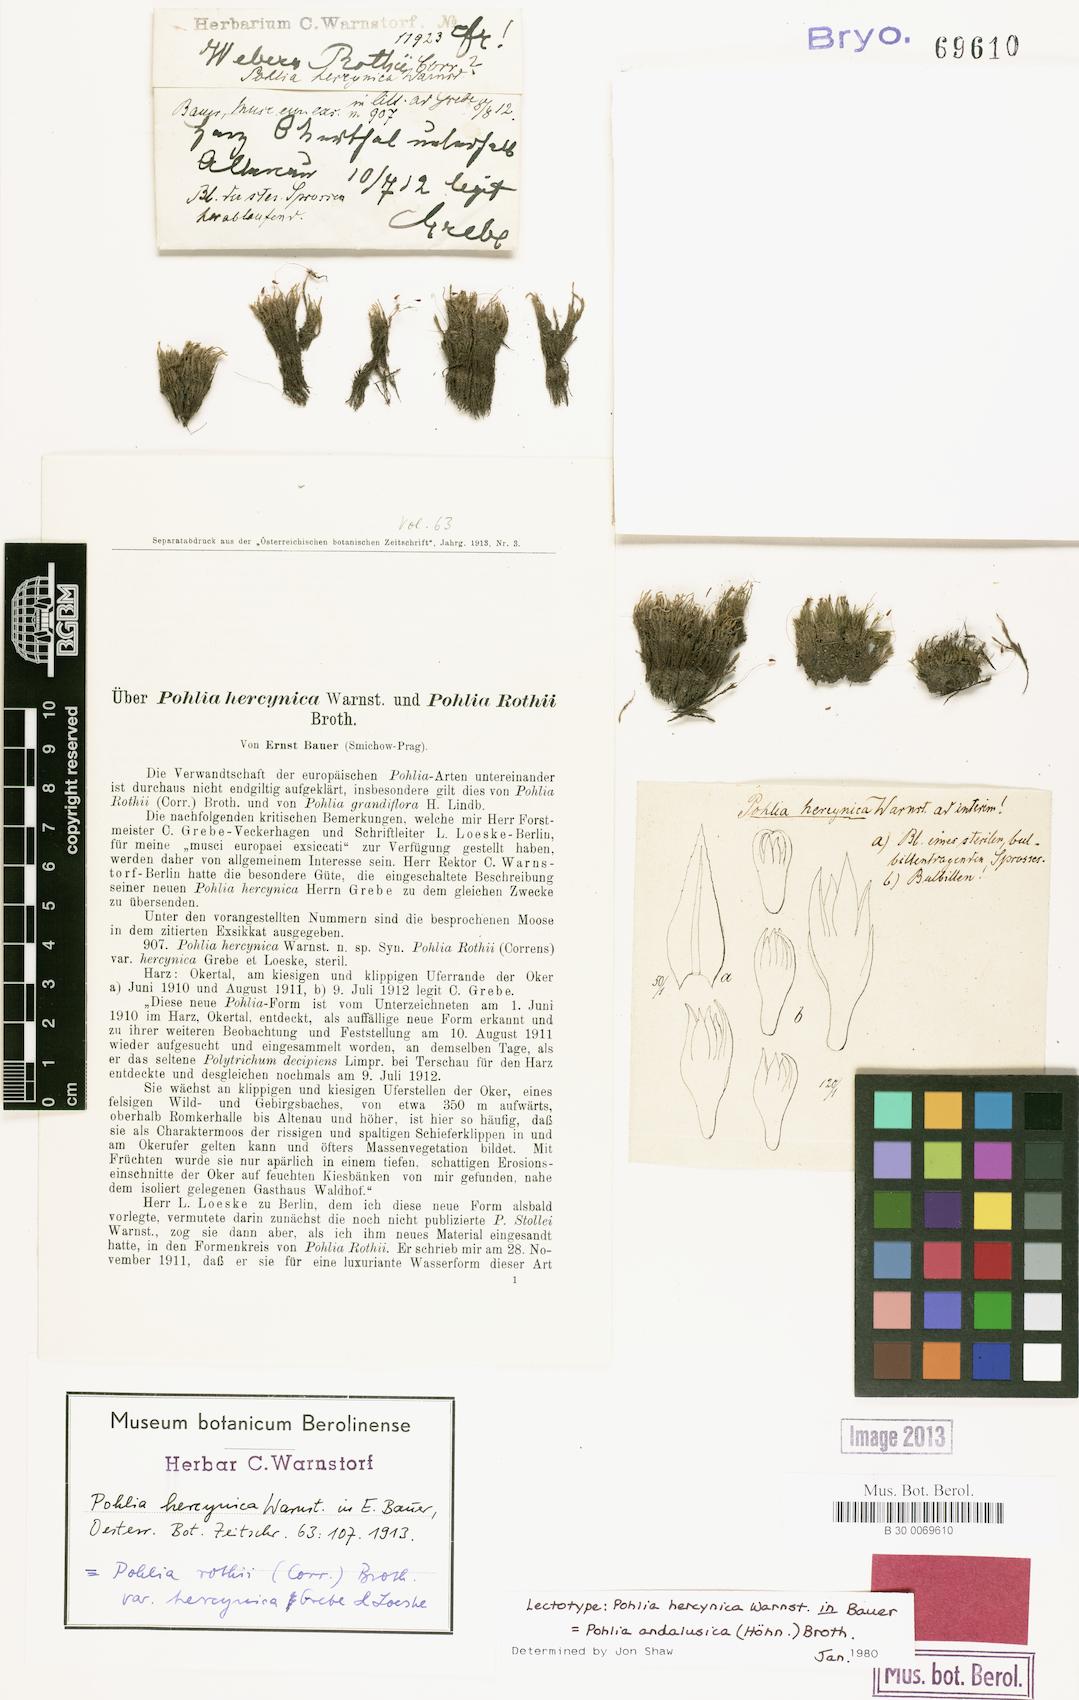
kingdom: Plantae
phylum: Bryophyta
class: Bryopsida
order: Bryales
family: Mniaceae
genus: Pohlia
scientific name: Pohlia andalusica
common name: Andalusian nodding moss
